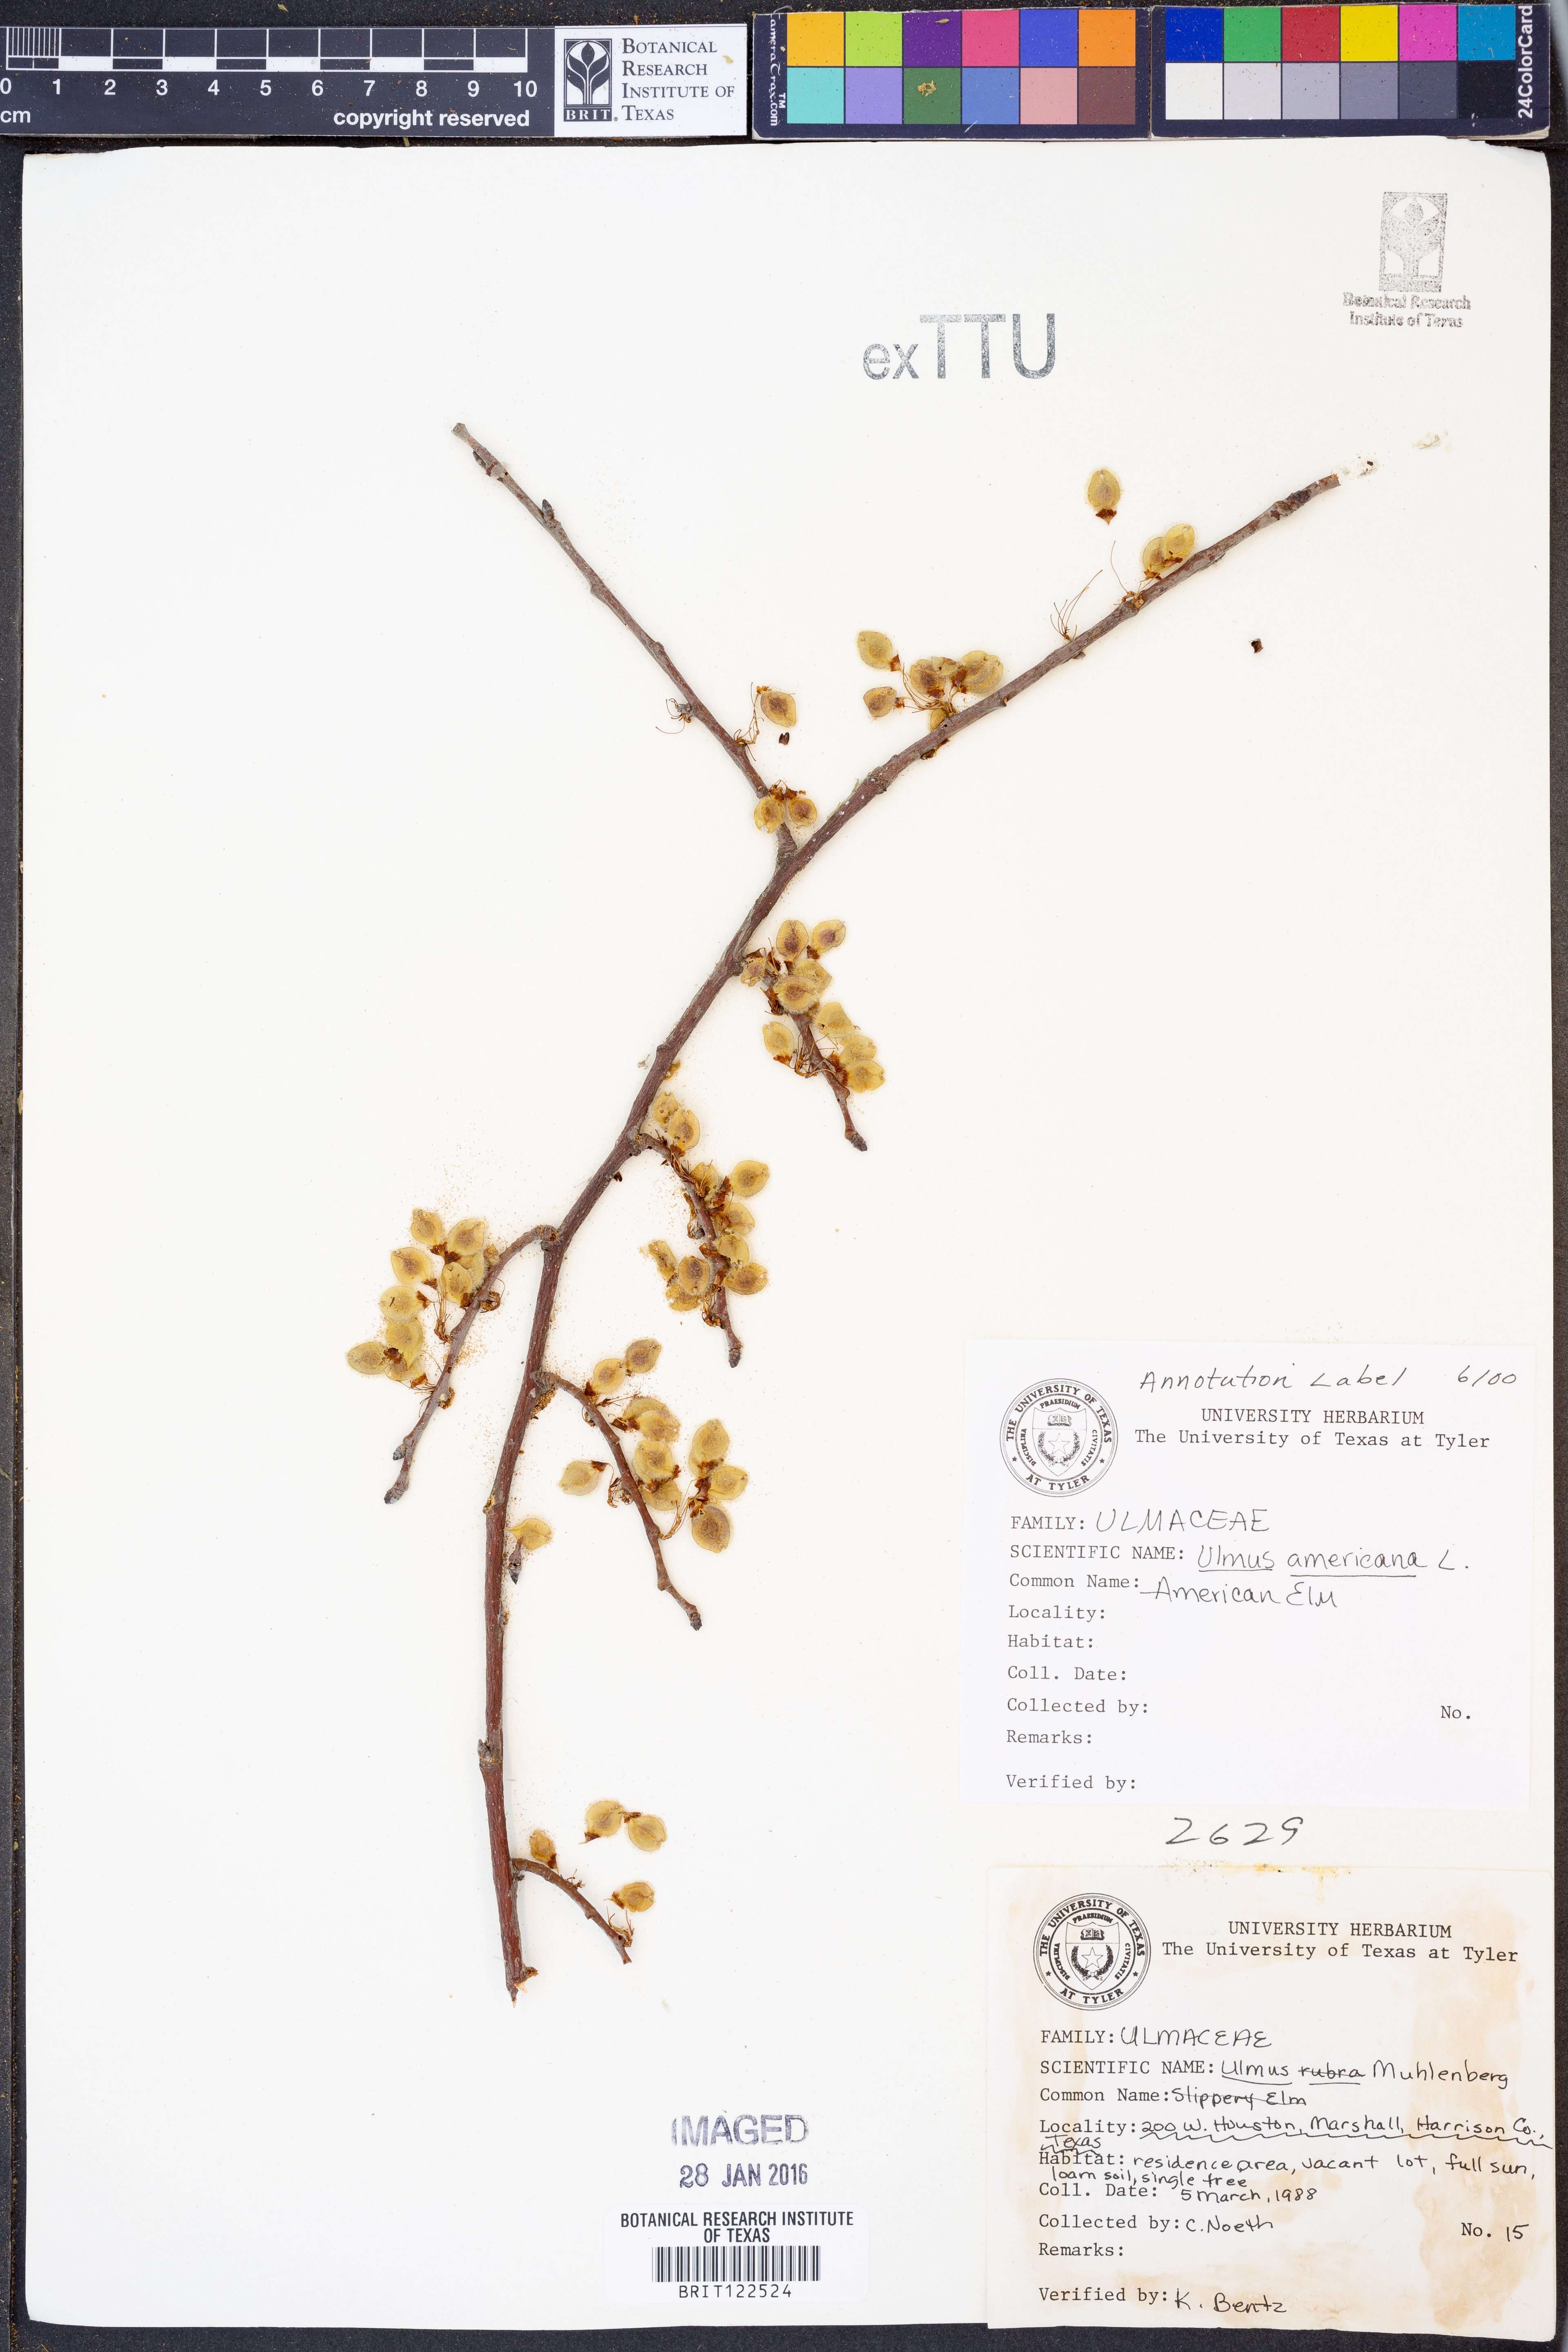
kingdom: Plantae
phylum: Tracheophyta
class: Magnoliopsida
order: Rosales
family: Ulmaceae
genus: Ulmus
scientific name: Ulmus americana
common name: American elm
